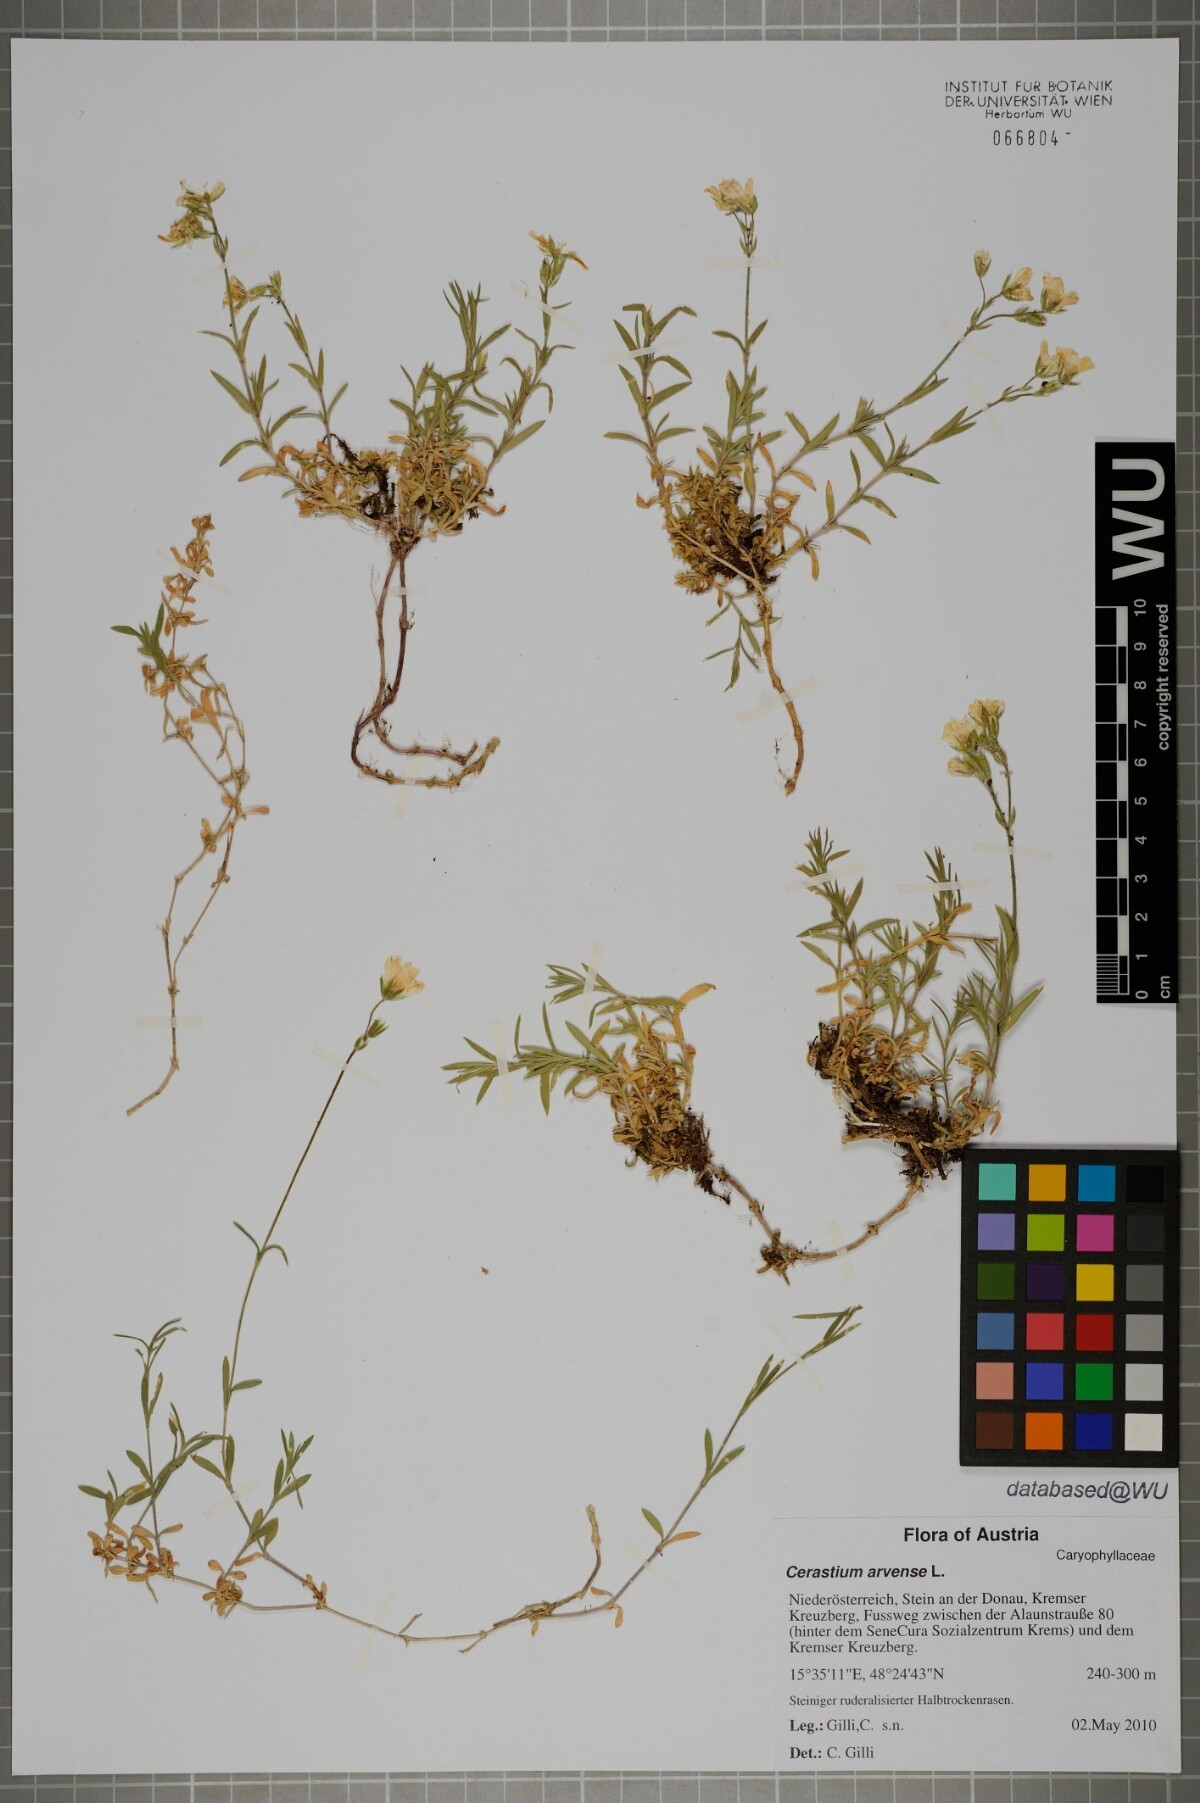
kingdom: Plantae
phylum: Tracheophyta
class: Magnoliopsida
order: Caryophyllales
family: Caryophyllaceae
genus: Cerastium
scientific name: Cerastium arvense
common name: Field mouse-ear
